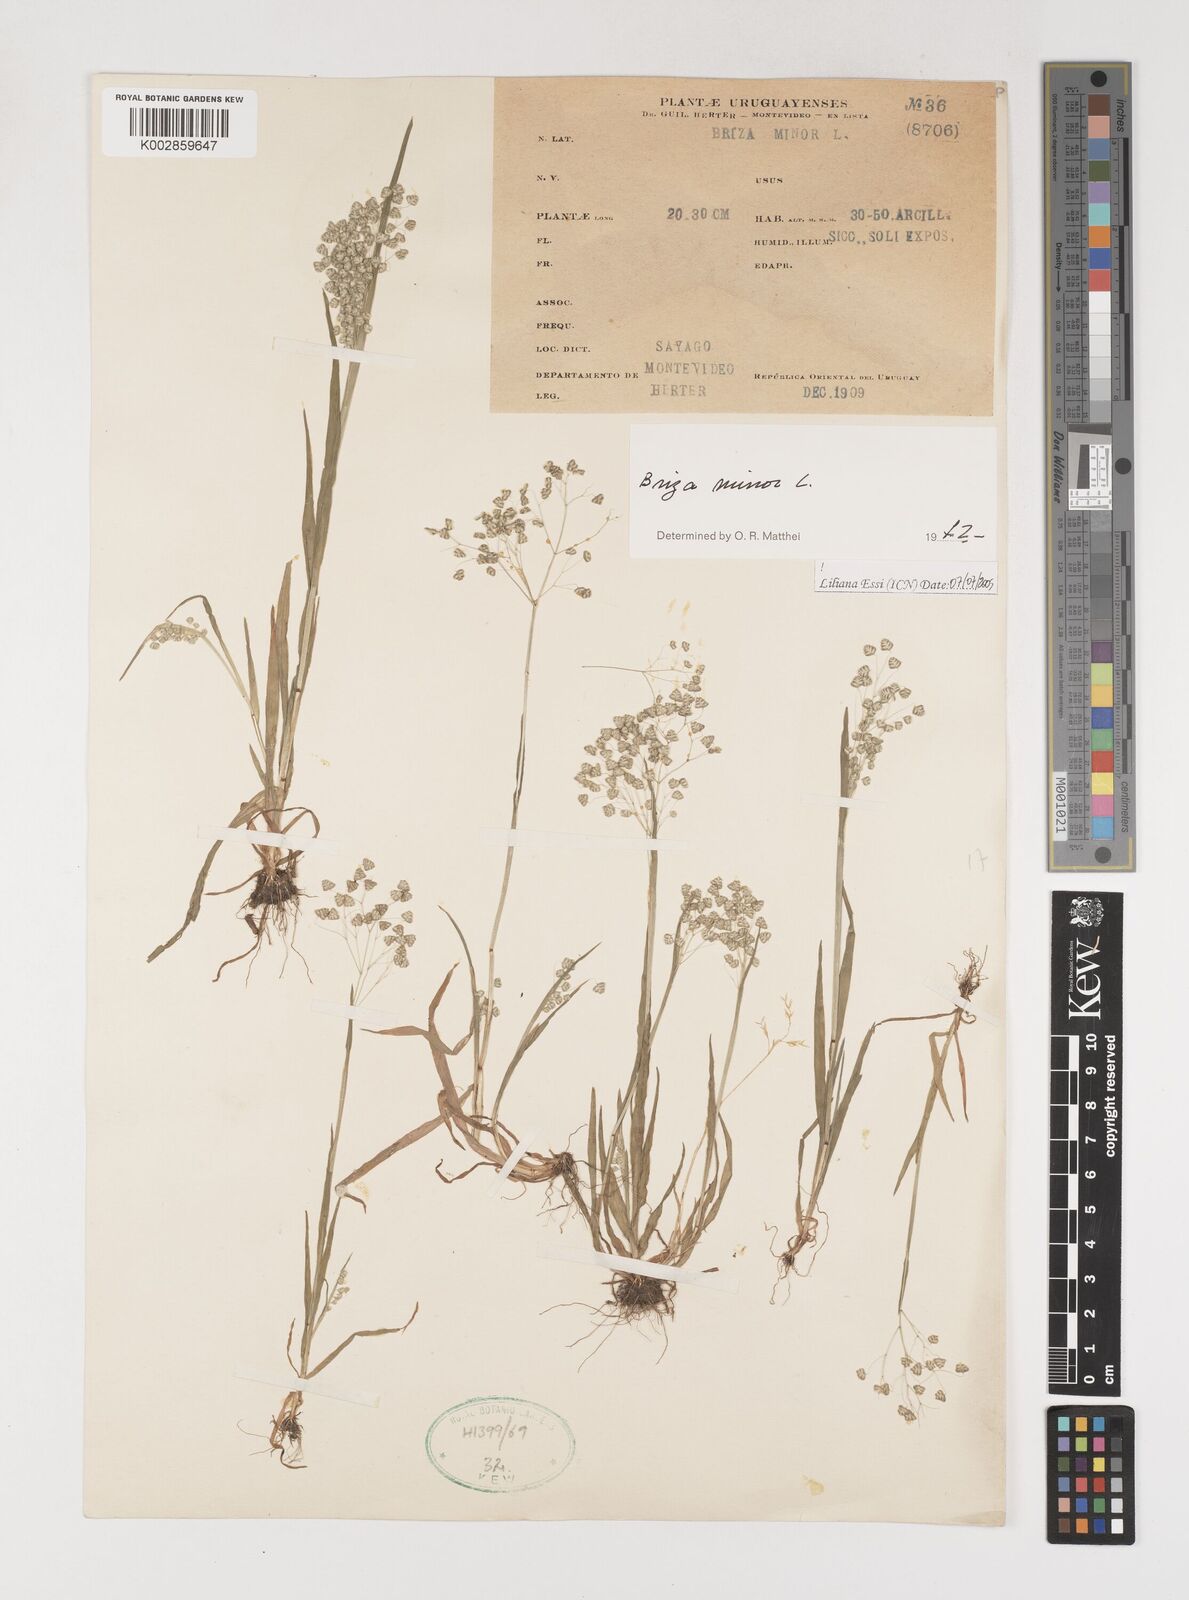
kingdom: Plantae
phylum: Tracheophyta
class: Liliopsida
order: Poales
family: Poaceae
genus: Briza
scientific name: Briza minor
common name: Lesser quaking-grass
